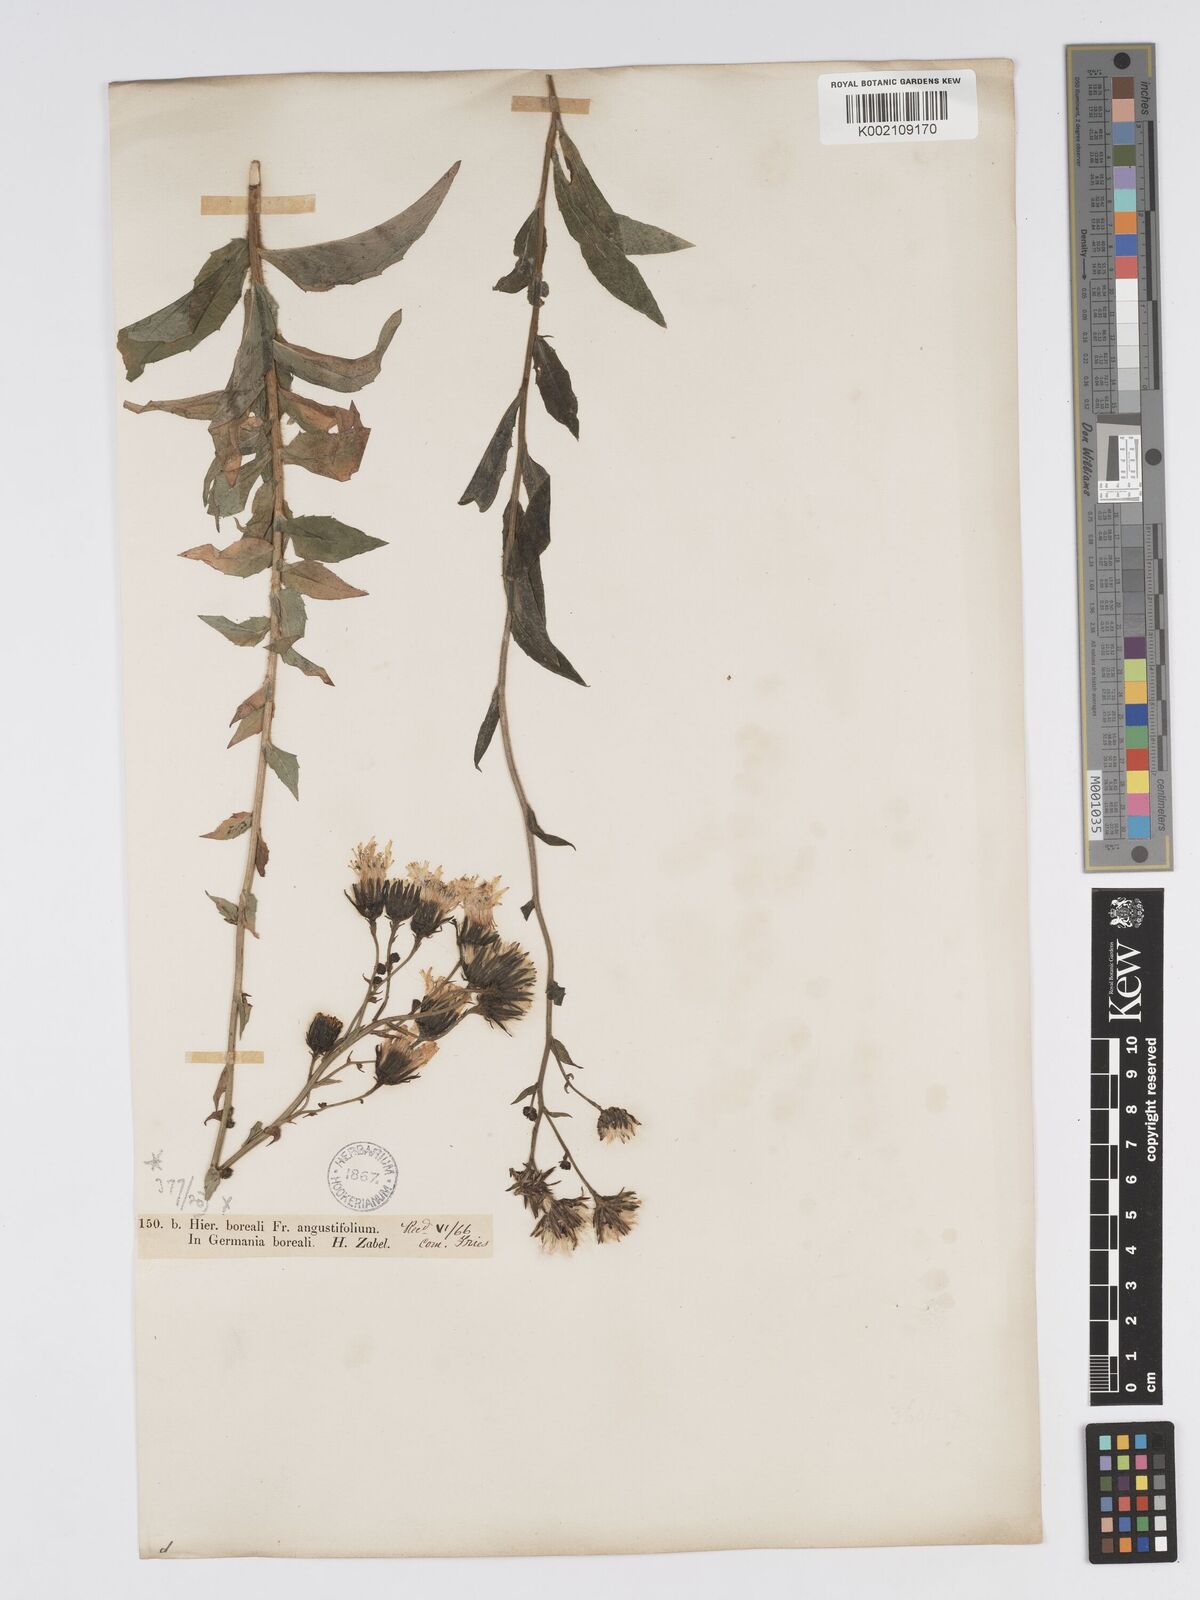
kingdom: Plantae
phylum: Tracheophyta
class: Magnoliopsida
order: Asterales
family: Asteraceae
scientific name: Asteraceae
